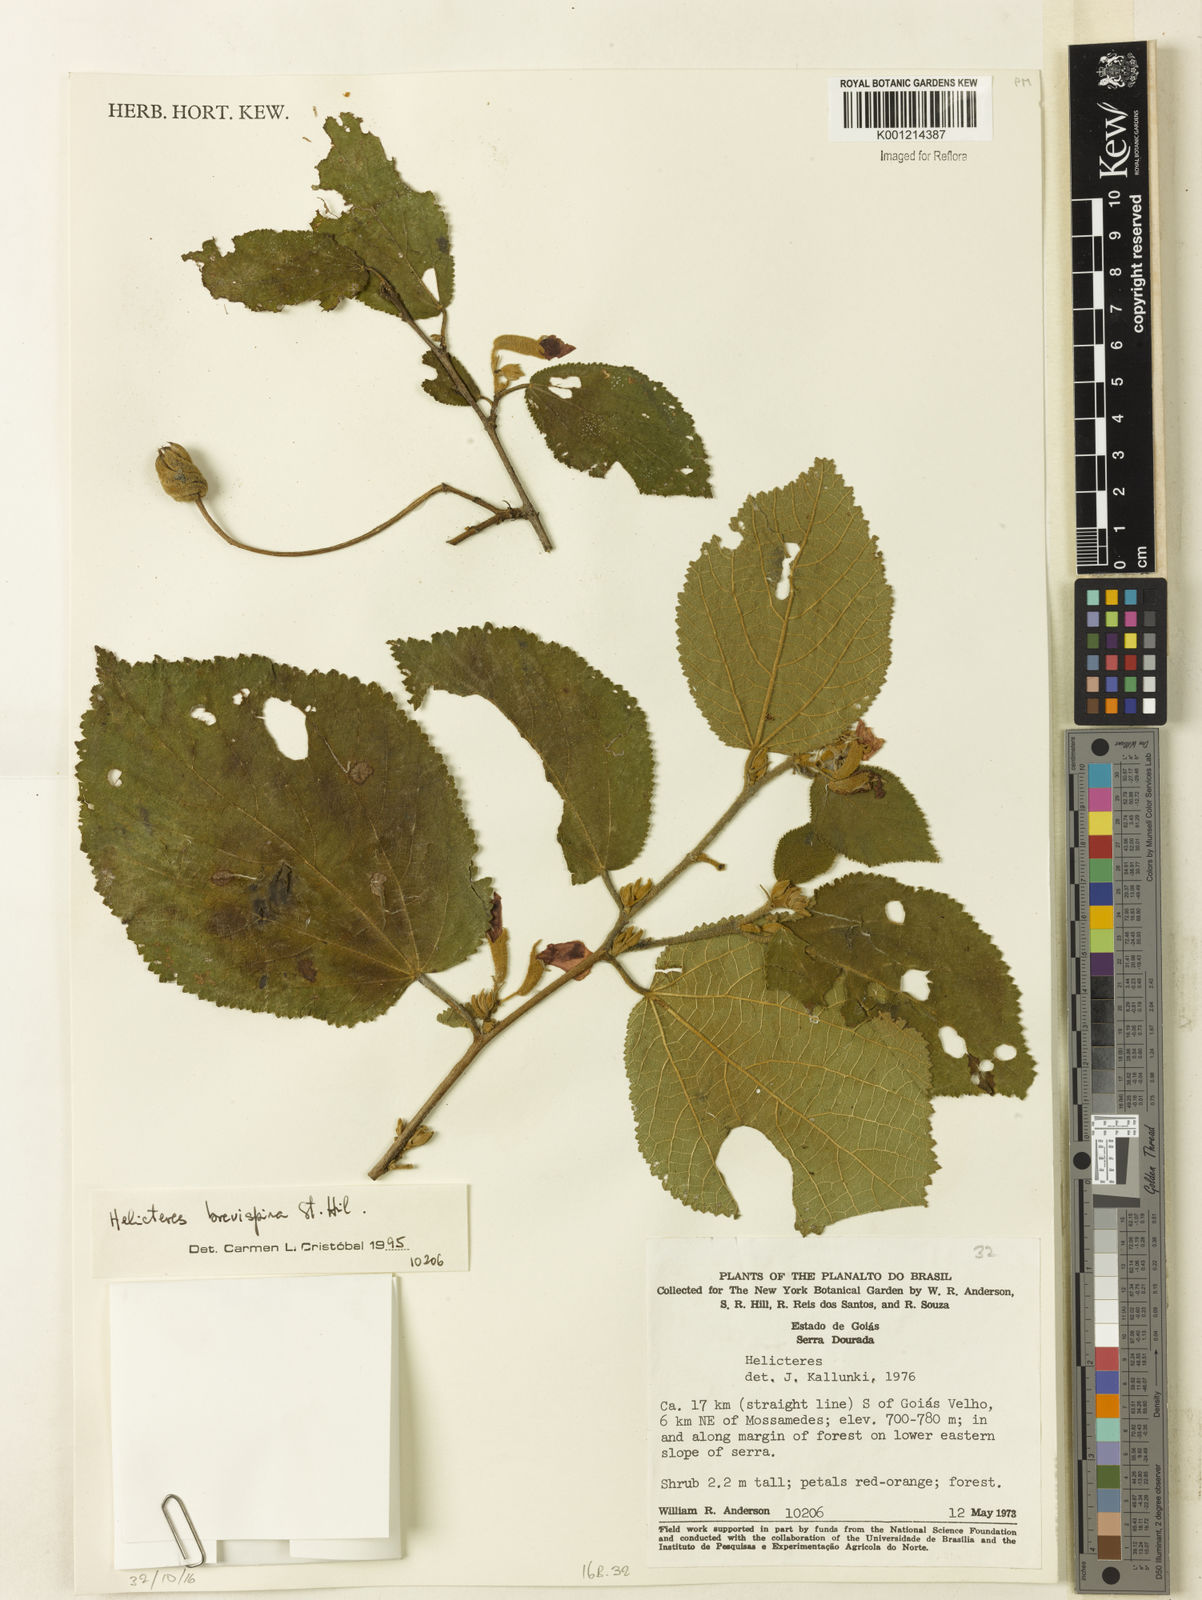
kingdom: Plantae
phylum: Tracheophyta
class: Magnoliopsida
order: Malvales
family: Malvaceae
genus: Helicteres
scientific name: Helicteres
